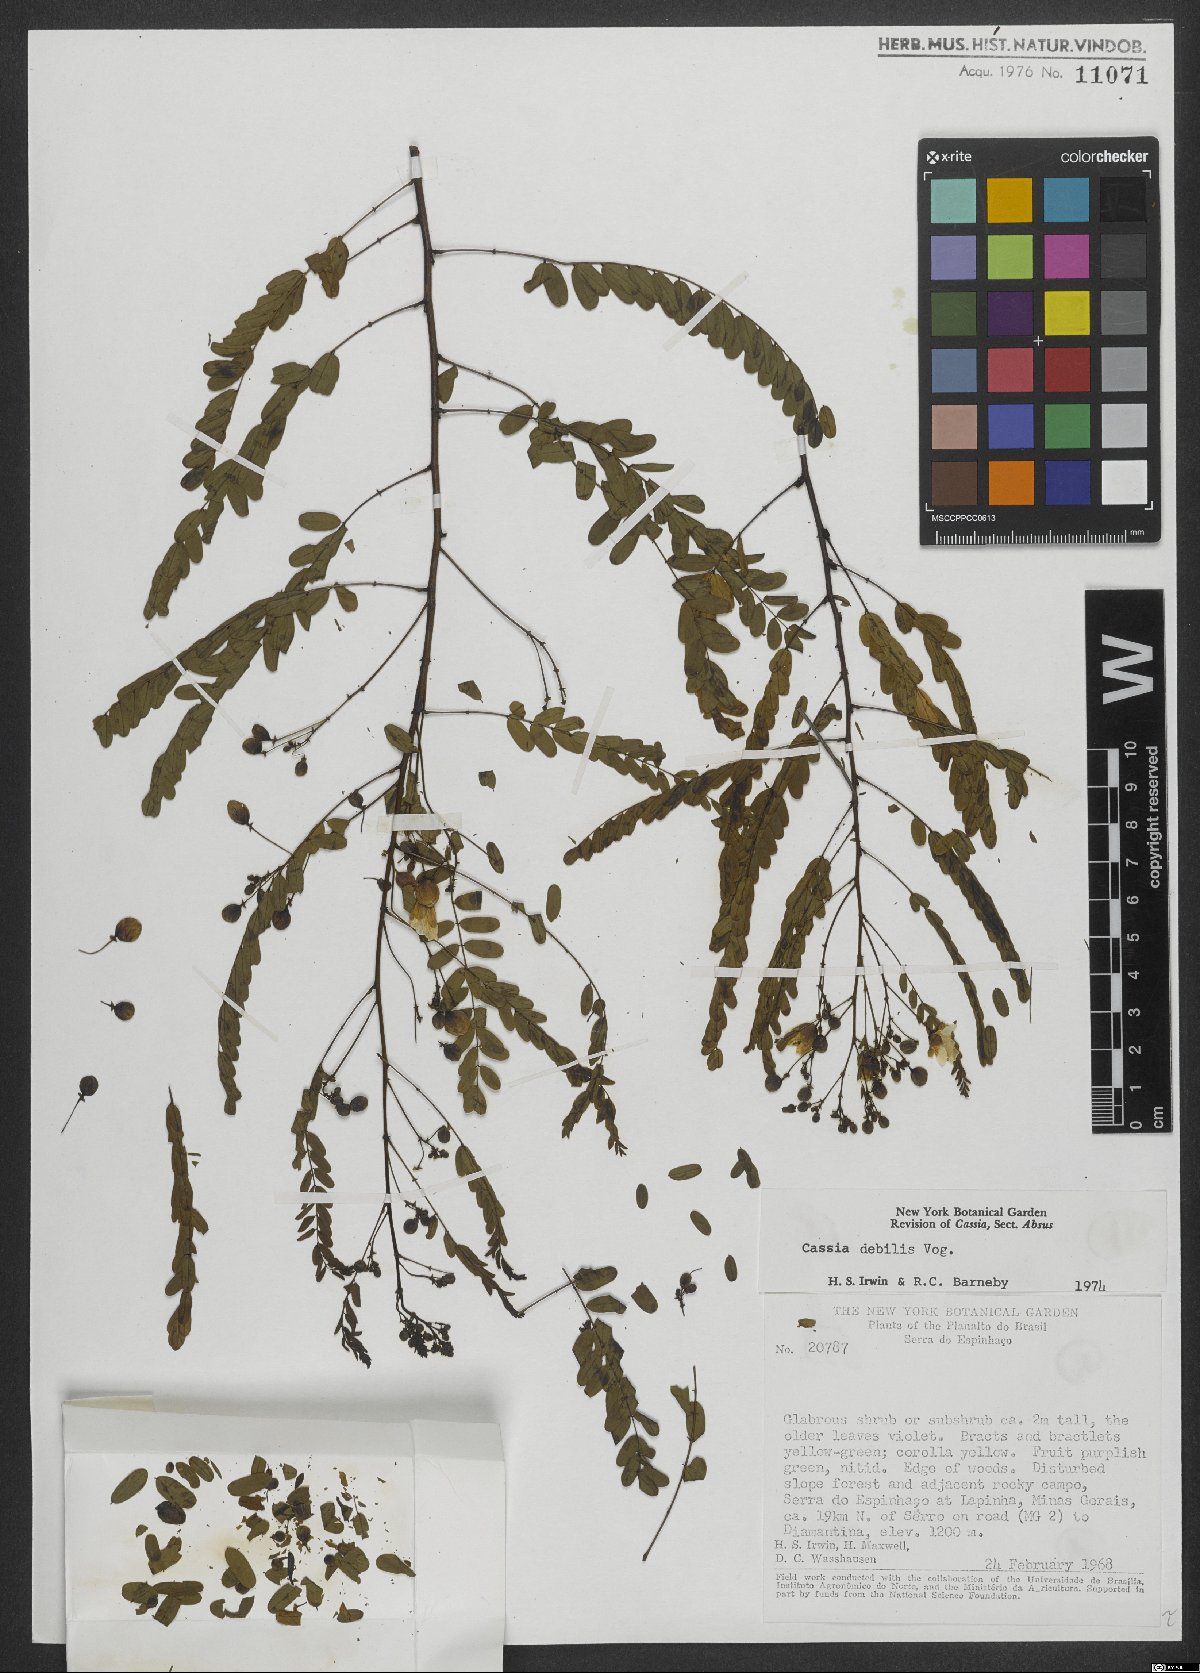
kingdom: Plantae
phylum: Tracheophyta
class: Magnoliopsida
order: Fabales
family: Fabaceae
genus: Chamaecrista
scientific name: Chamaecrista debilis
